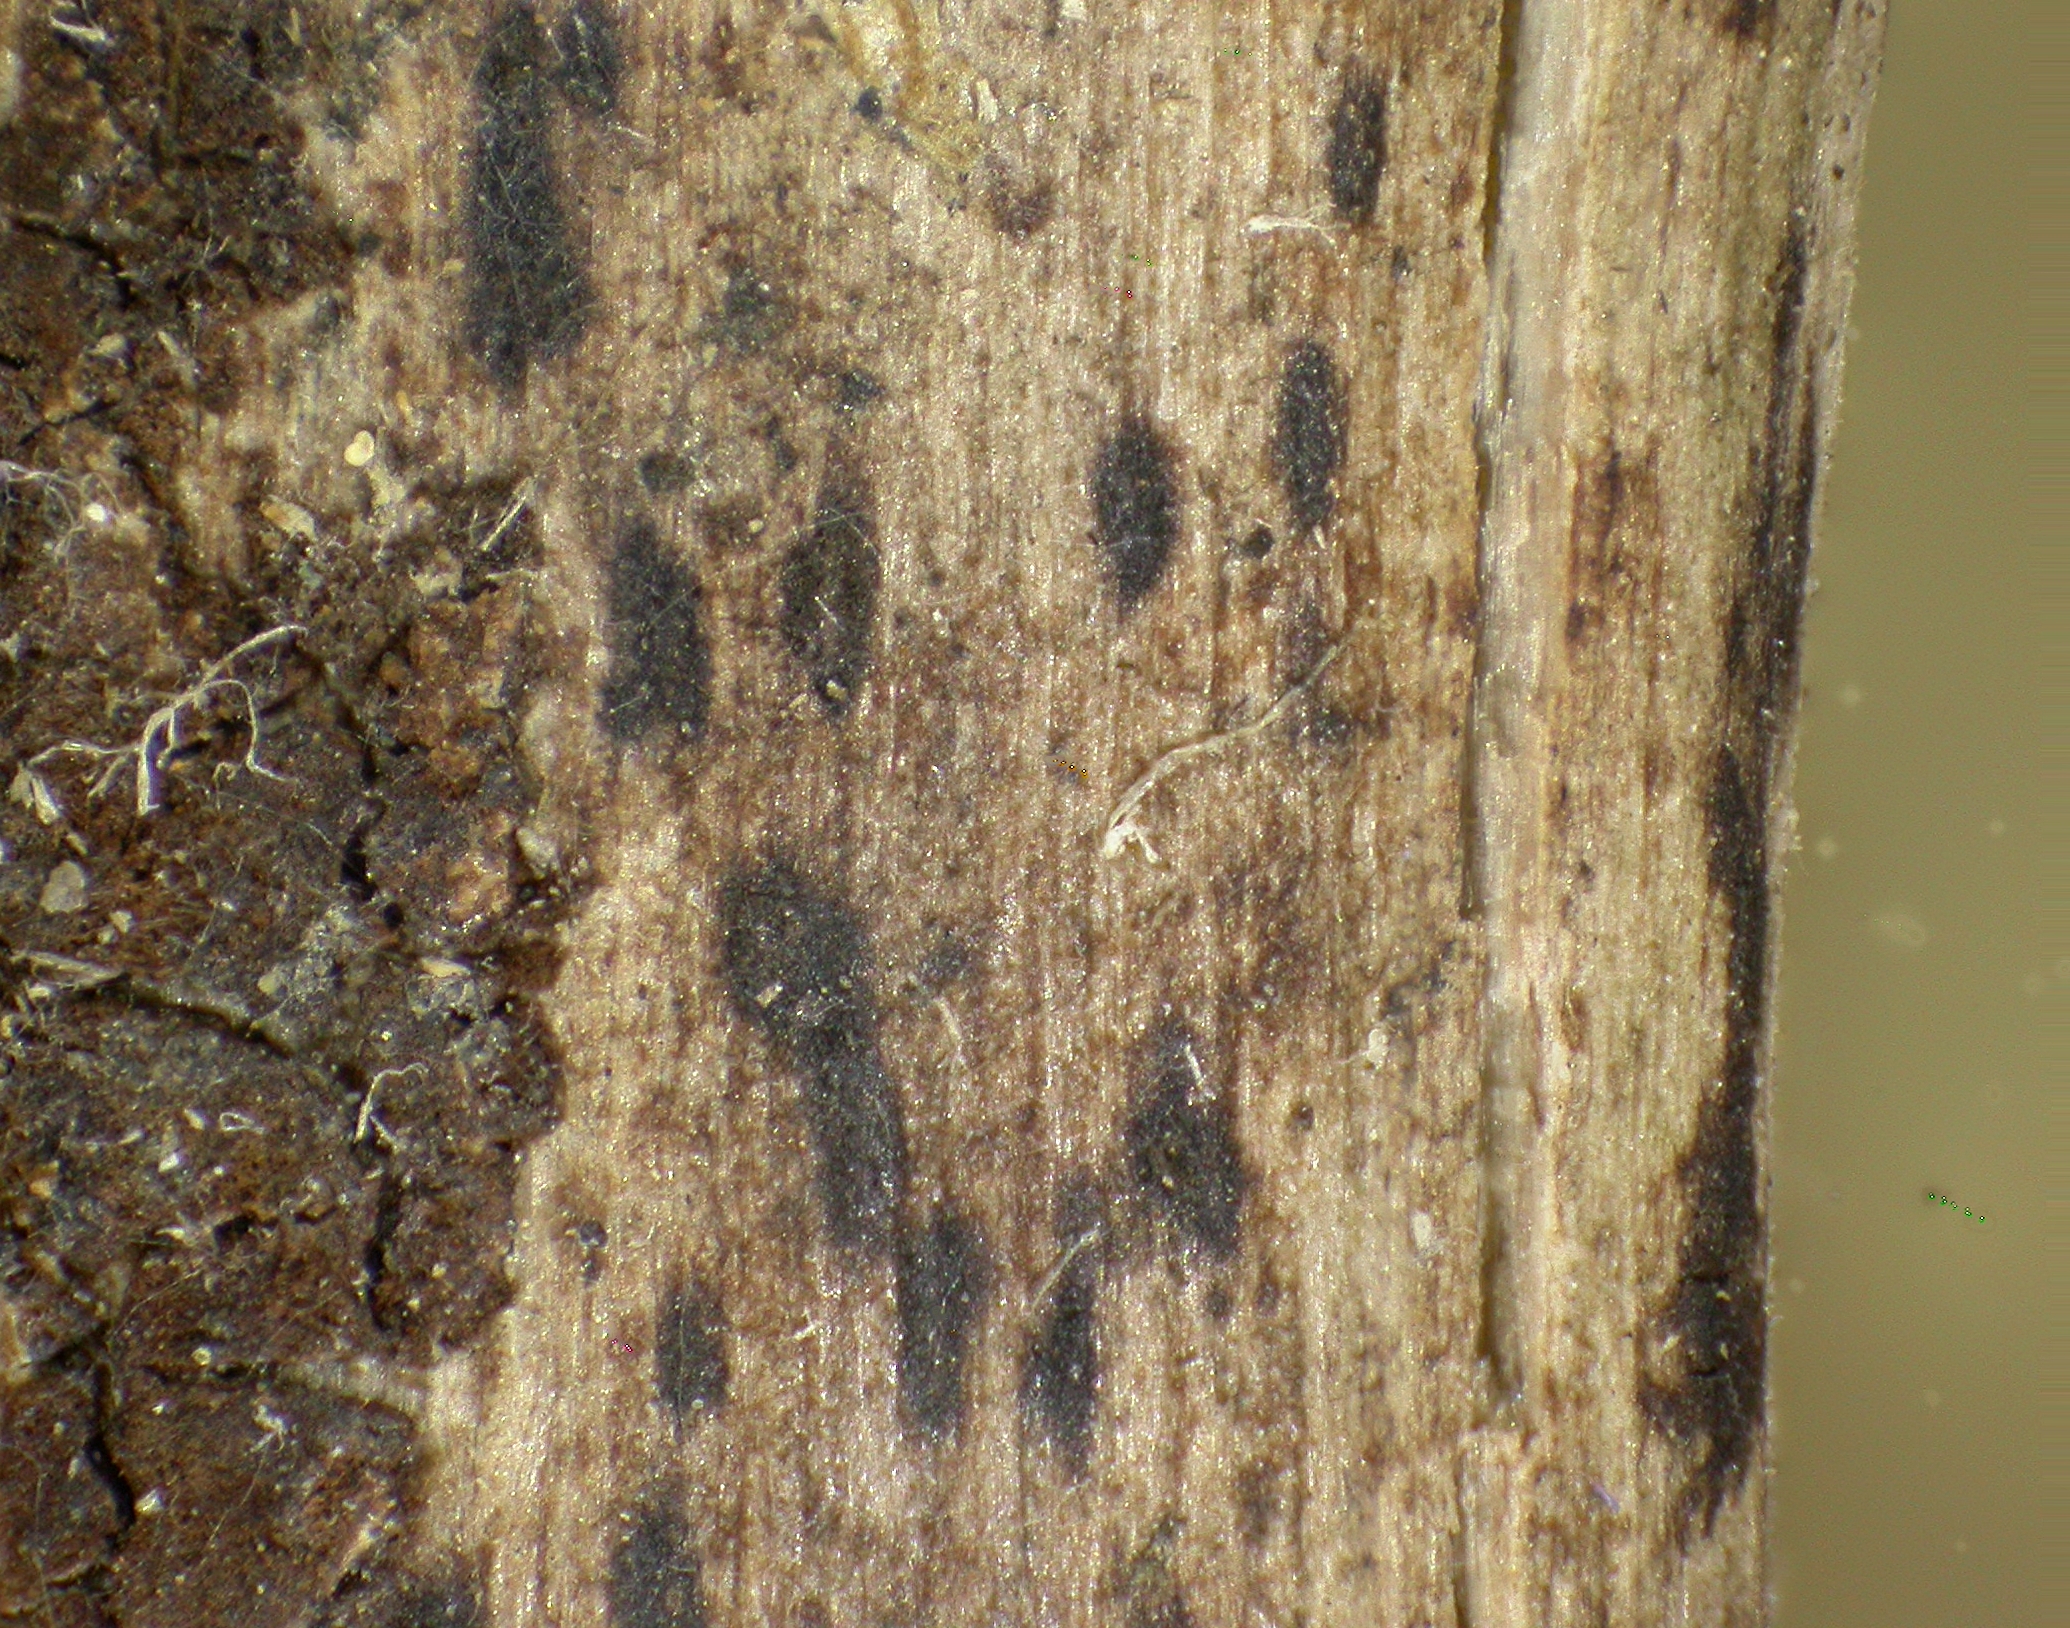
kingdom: Fungi
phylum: Ascomycota
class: Dothideomycetes
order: Dothideales
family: Saccotheciaceae
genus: Metasphaeria
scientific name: Metasphaeria errabunda
